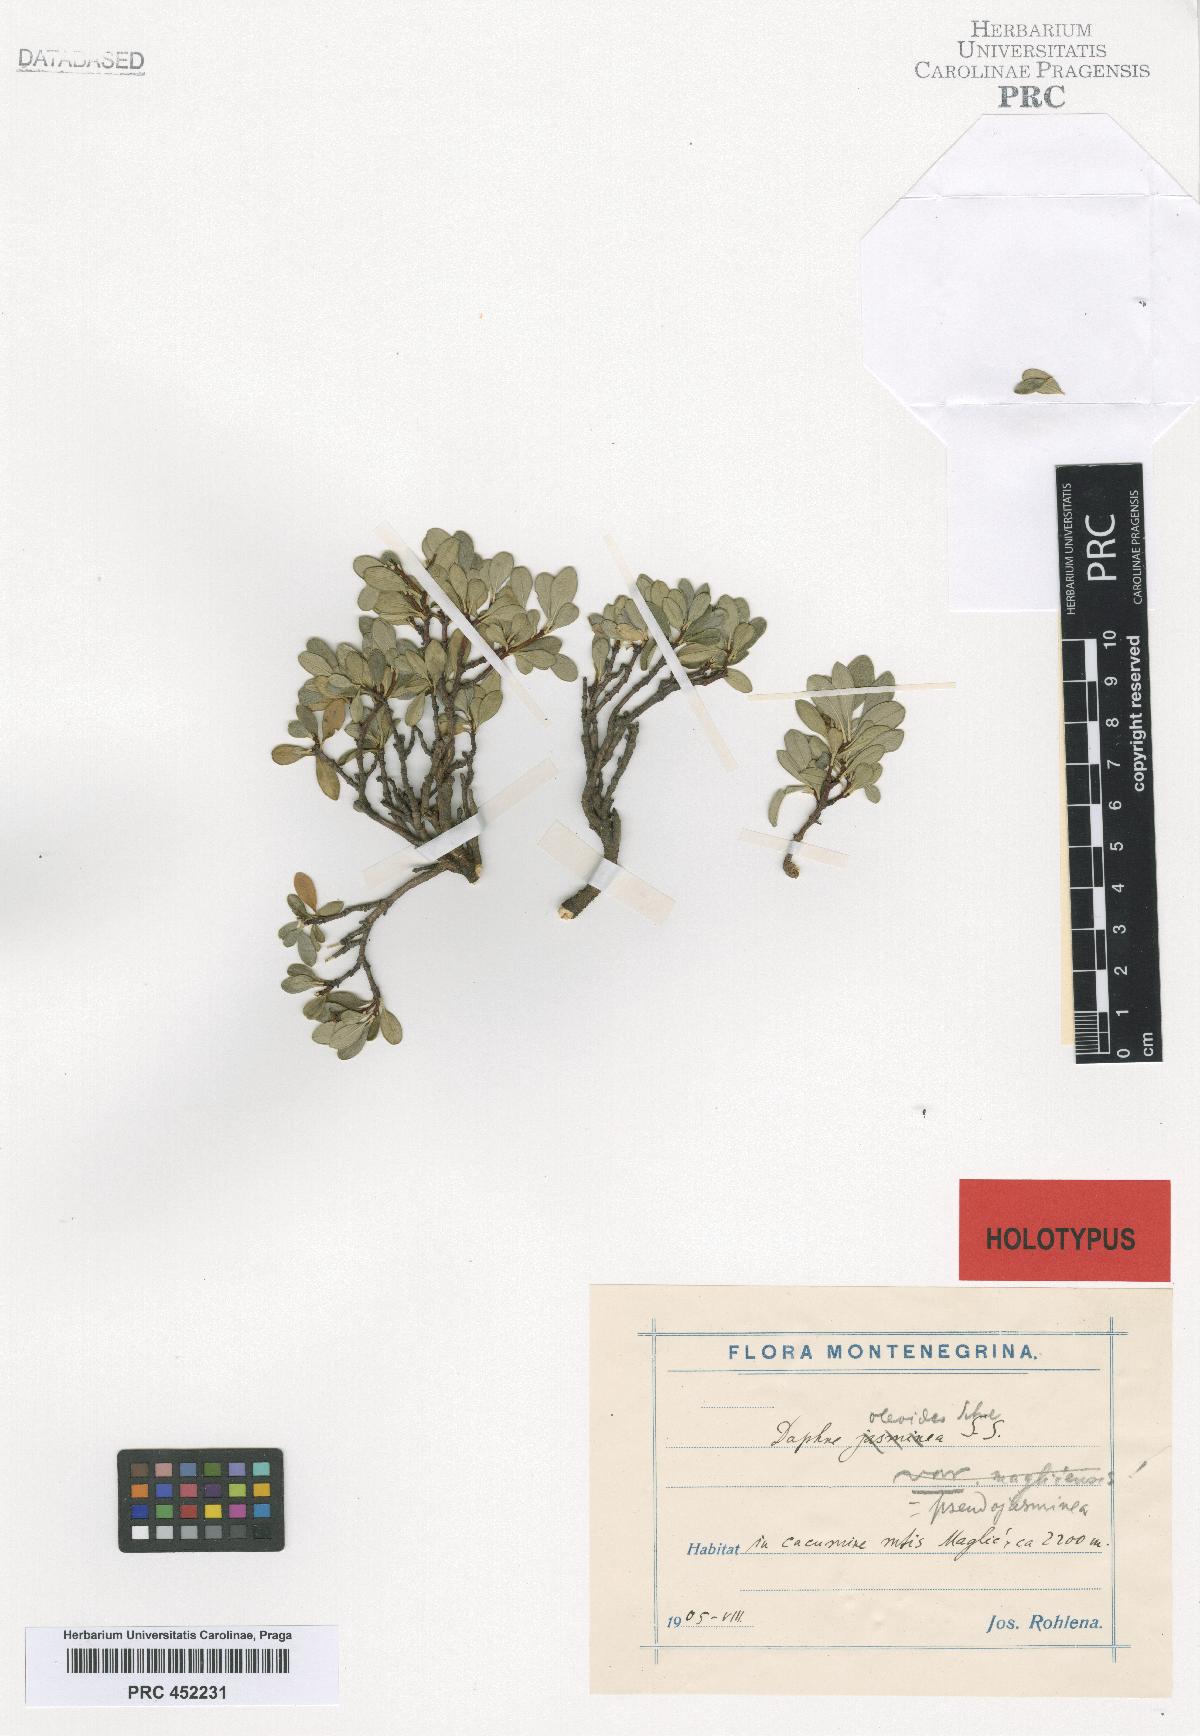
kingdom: Plantae
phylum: Tracheophyta
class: Magnoliopsida
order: Malvales
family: Thymelaeaceae
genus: Daphne
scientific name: Daphne oleoides
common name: Spurge-olive
